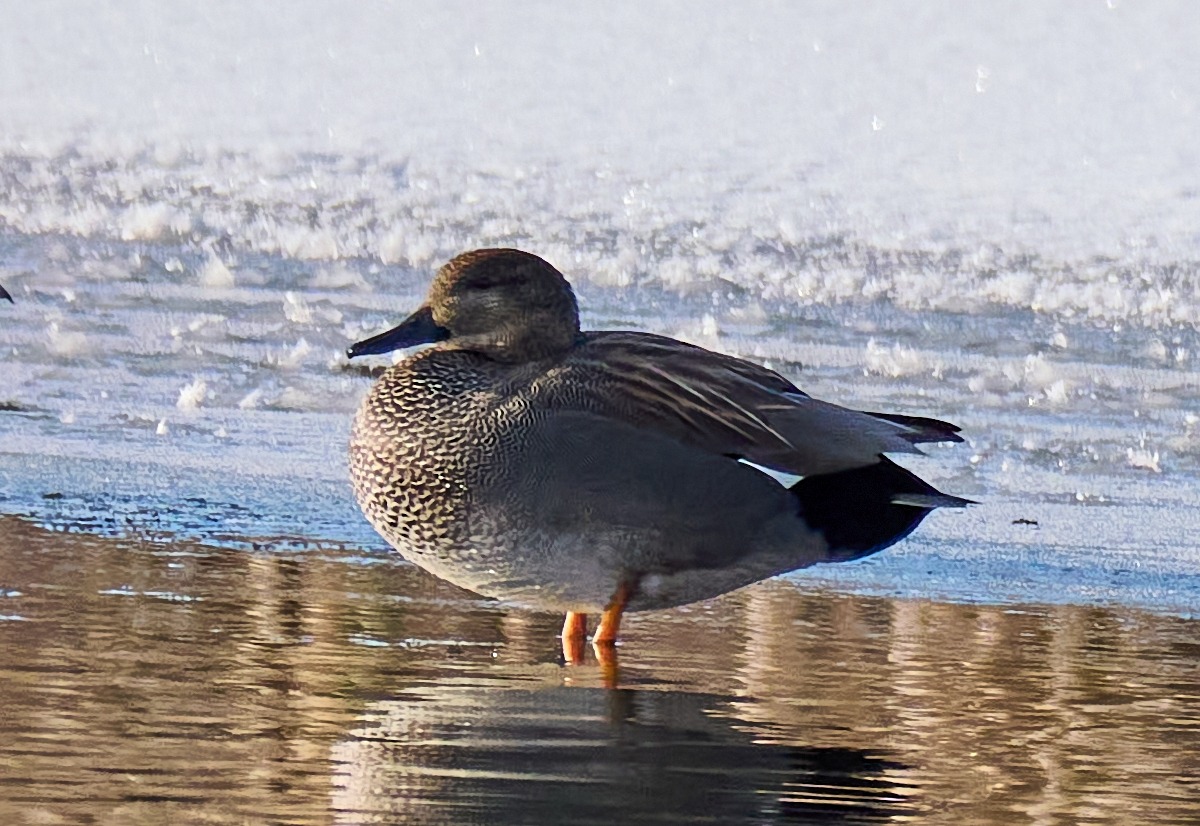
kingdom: Animalia
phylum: Chordata
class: Aves
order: Anseriformes
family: Anatidae
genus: Mareca
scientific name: Mareca strepera
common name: Knarand
